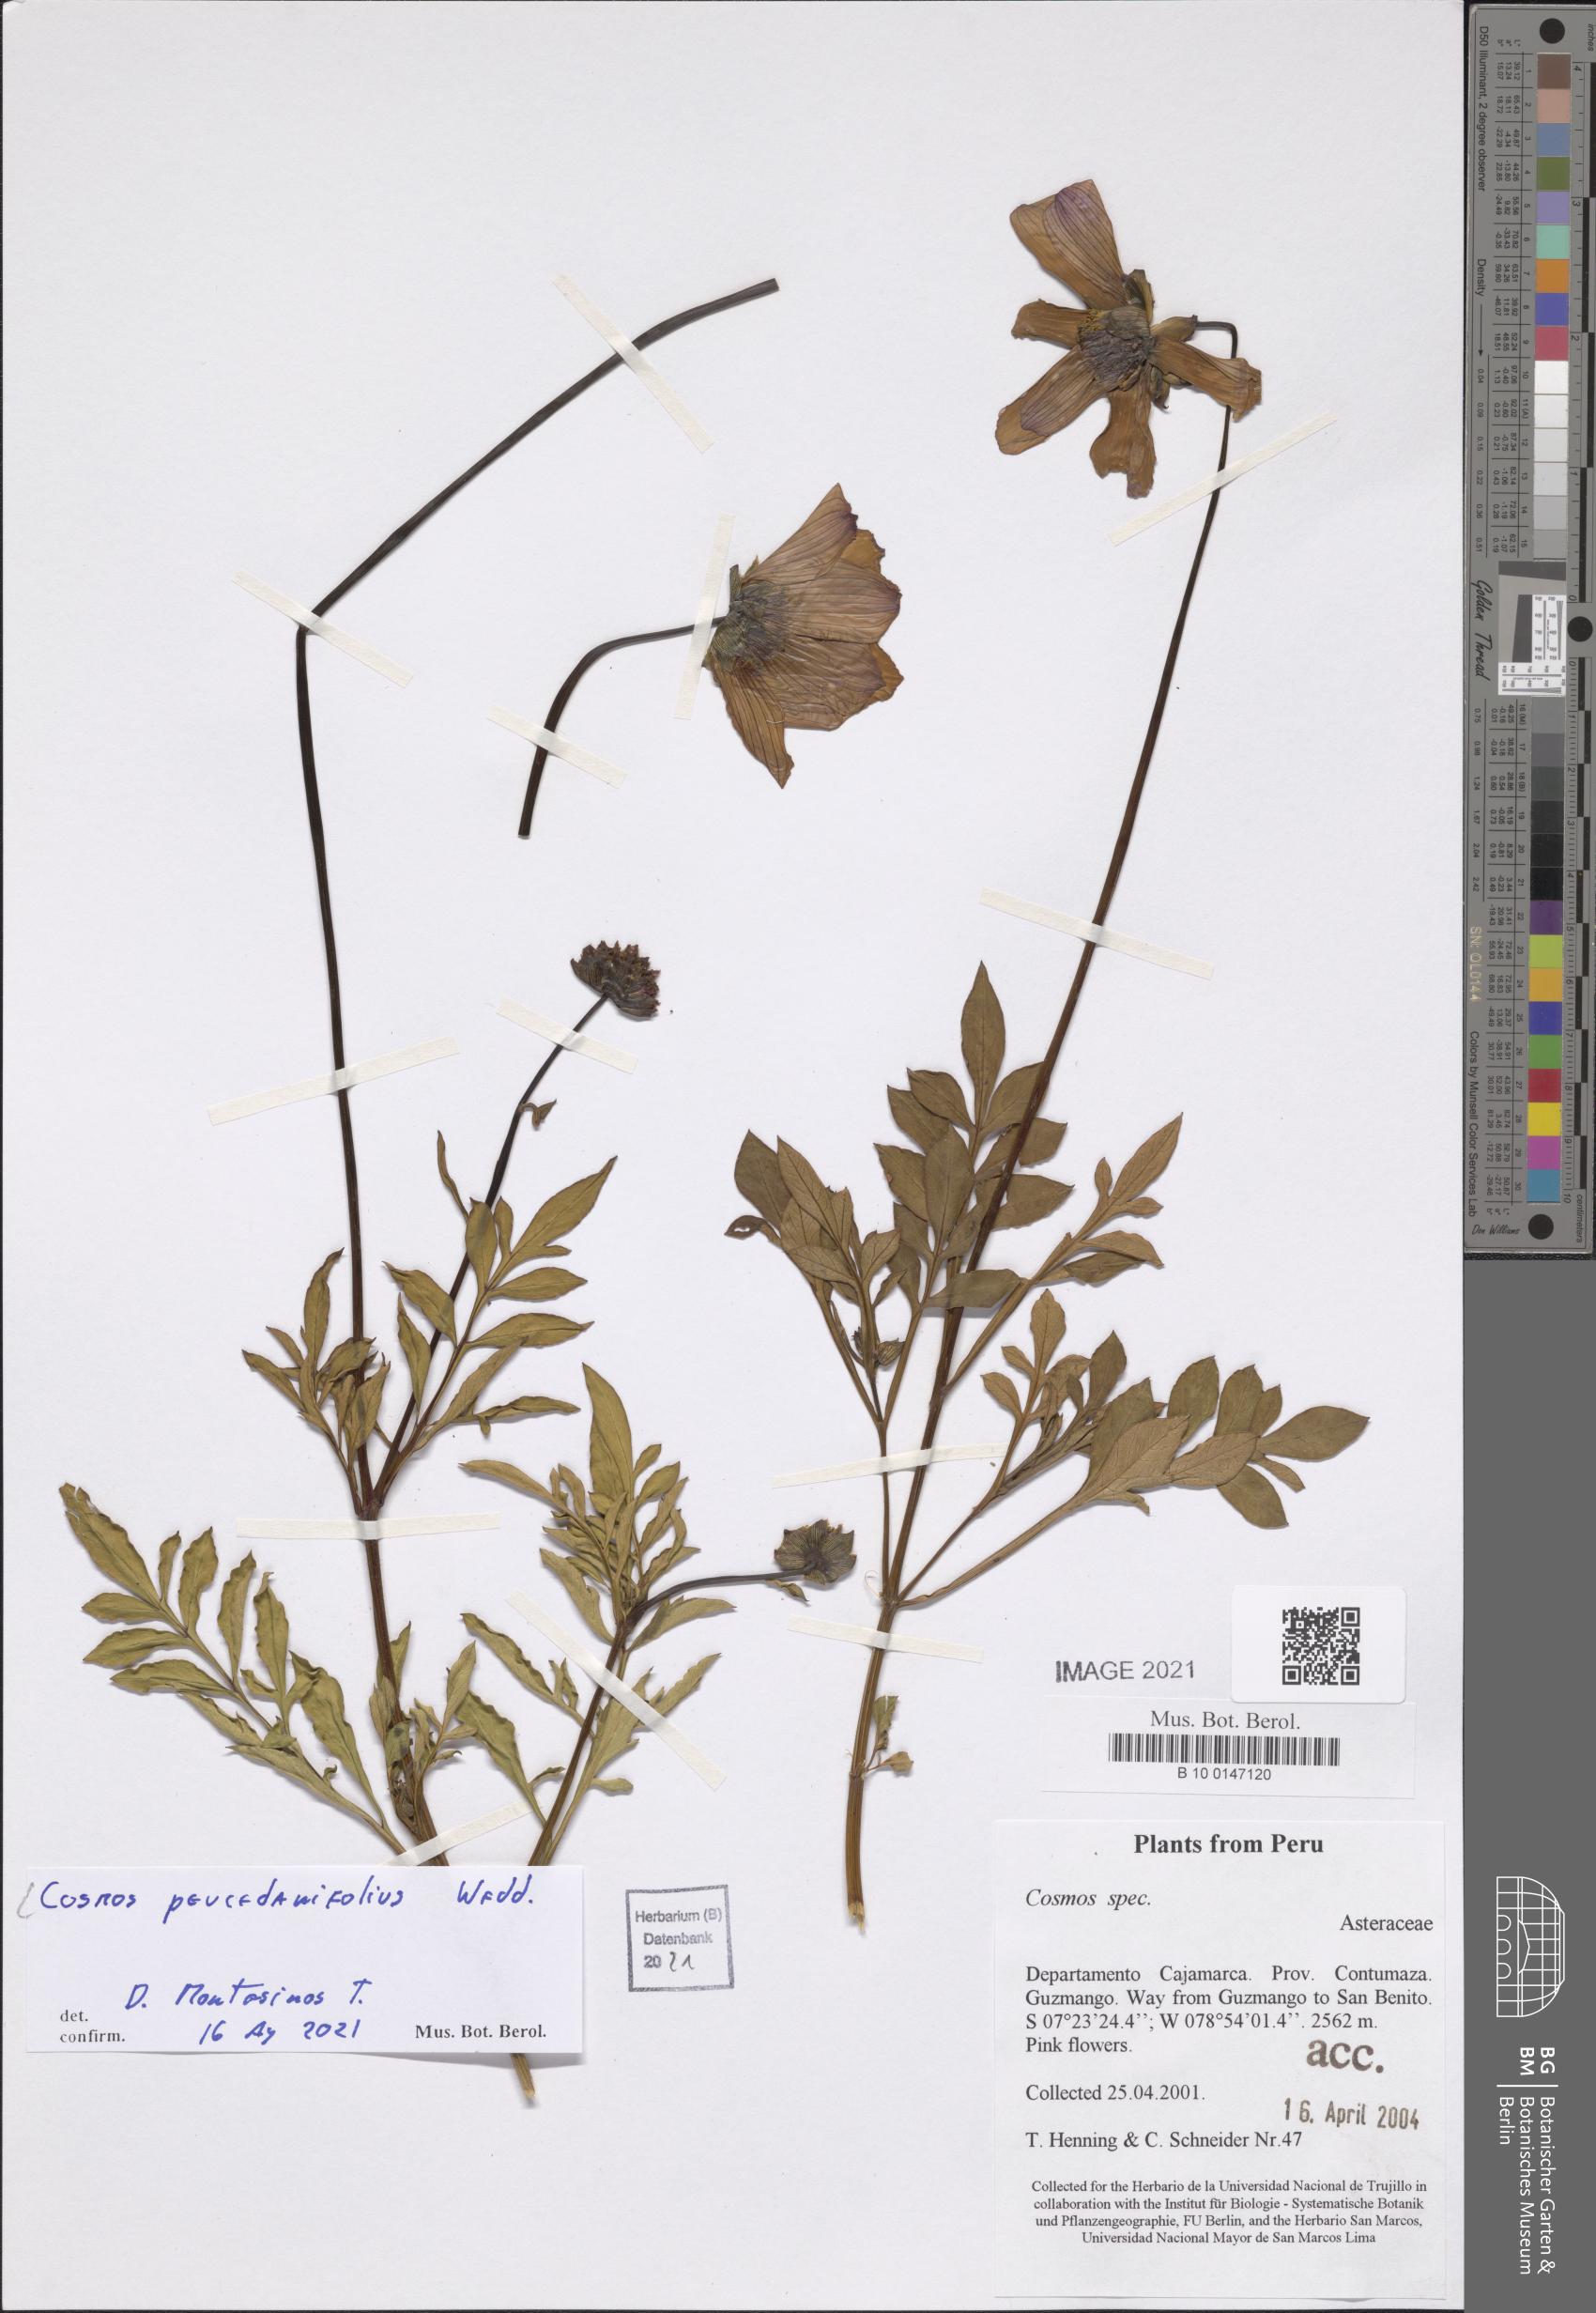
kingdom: Plantae
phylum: Tracheophyta
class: Magnoliopsida
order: Asterales
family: Asteraceae
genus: Cosmos
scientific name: Cosmos peucedanifolius
